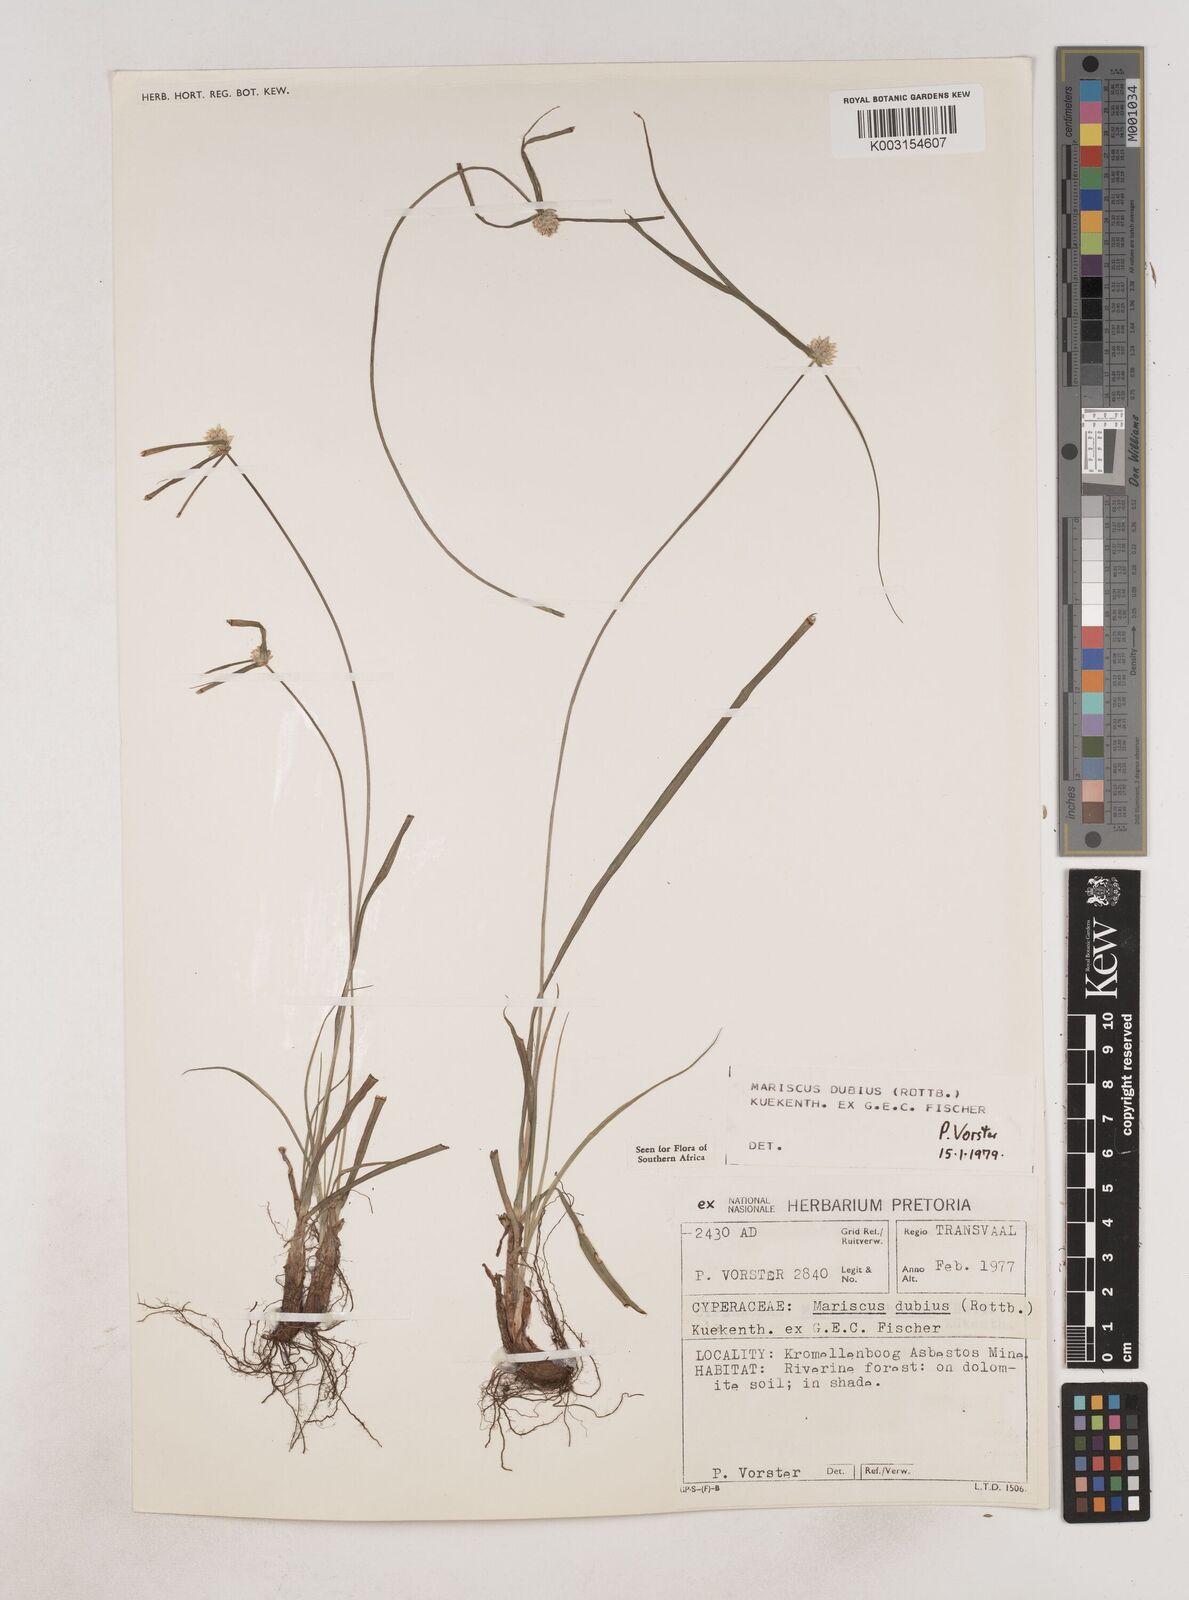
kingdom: Plantae
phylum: Tracheophyta
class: Liliopsida
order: Poales
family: Cyperaceae
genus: Cyperus
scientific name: Cyperus dubius
